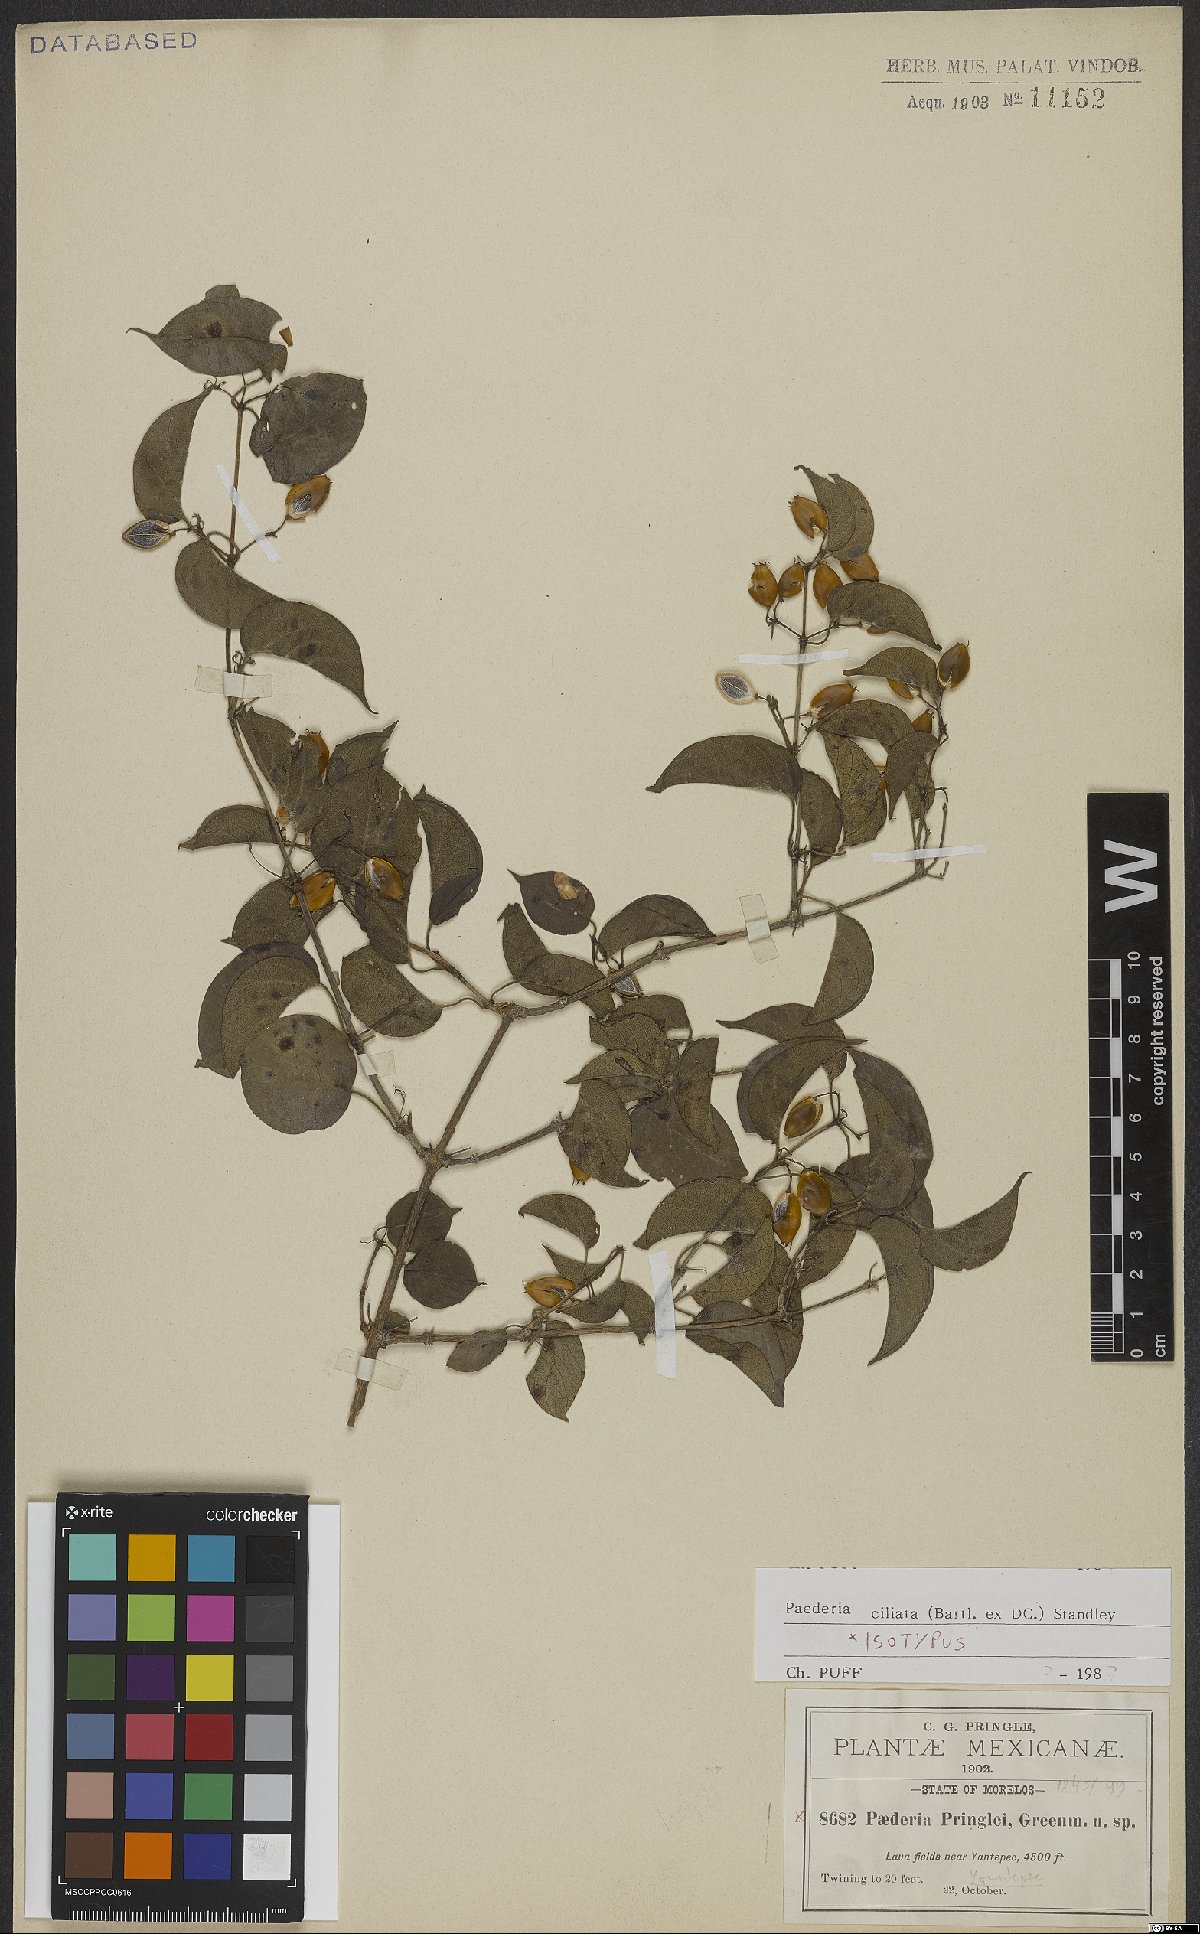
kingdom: Plantae
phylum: Tracheophyta
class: Magnoliopsida
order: Gentianales
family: Rubiaceae
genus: Paederia
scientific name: Paederia ciliata
